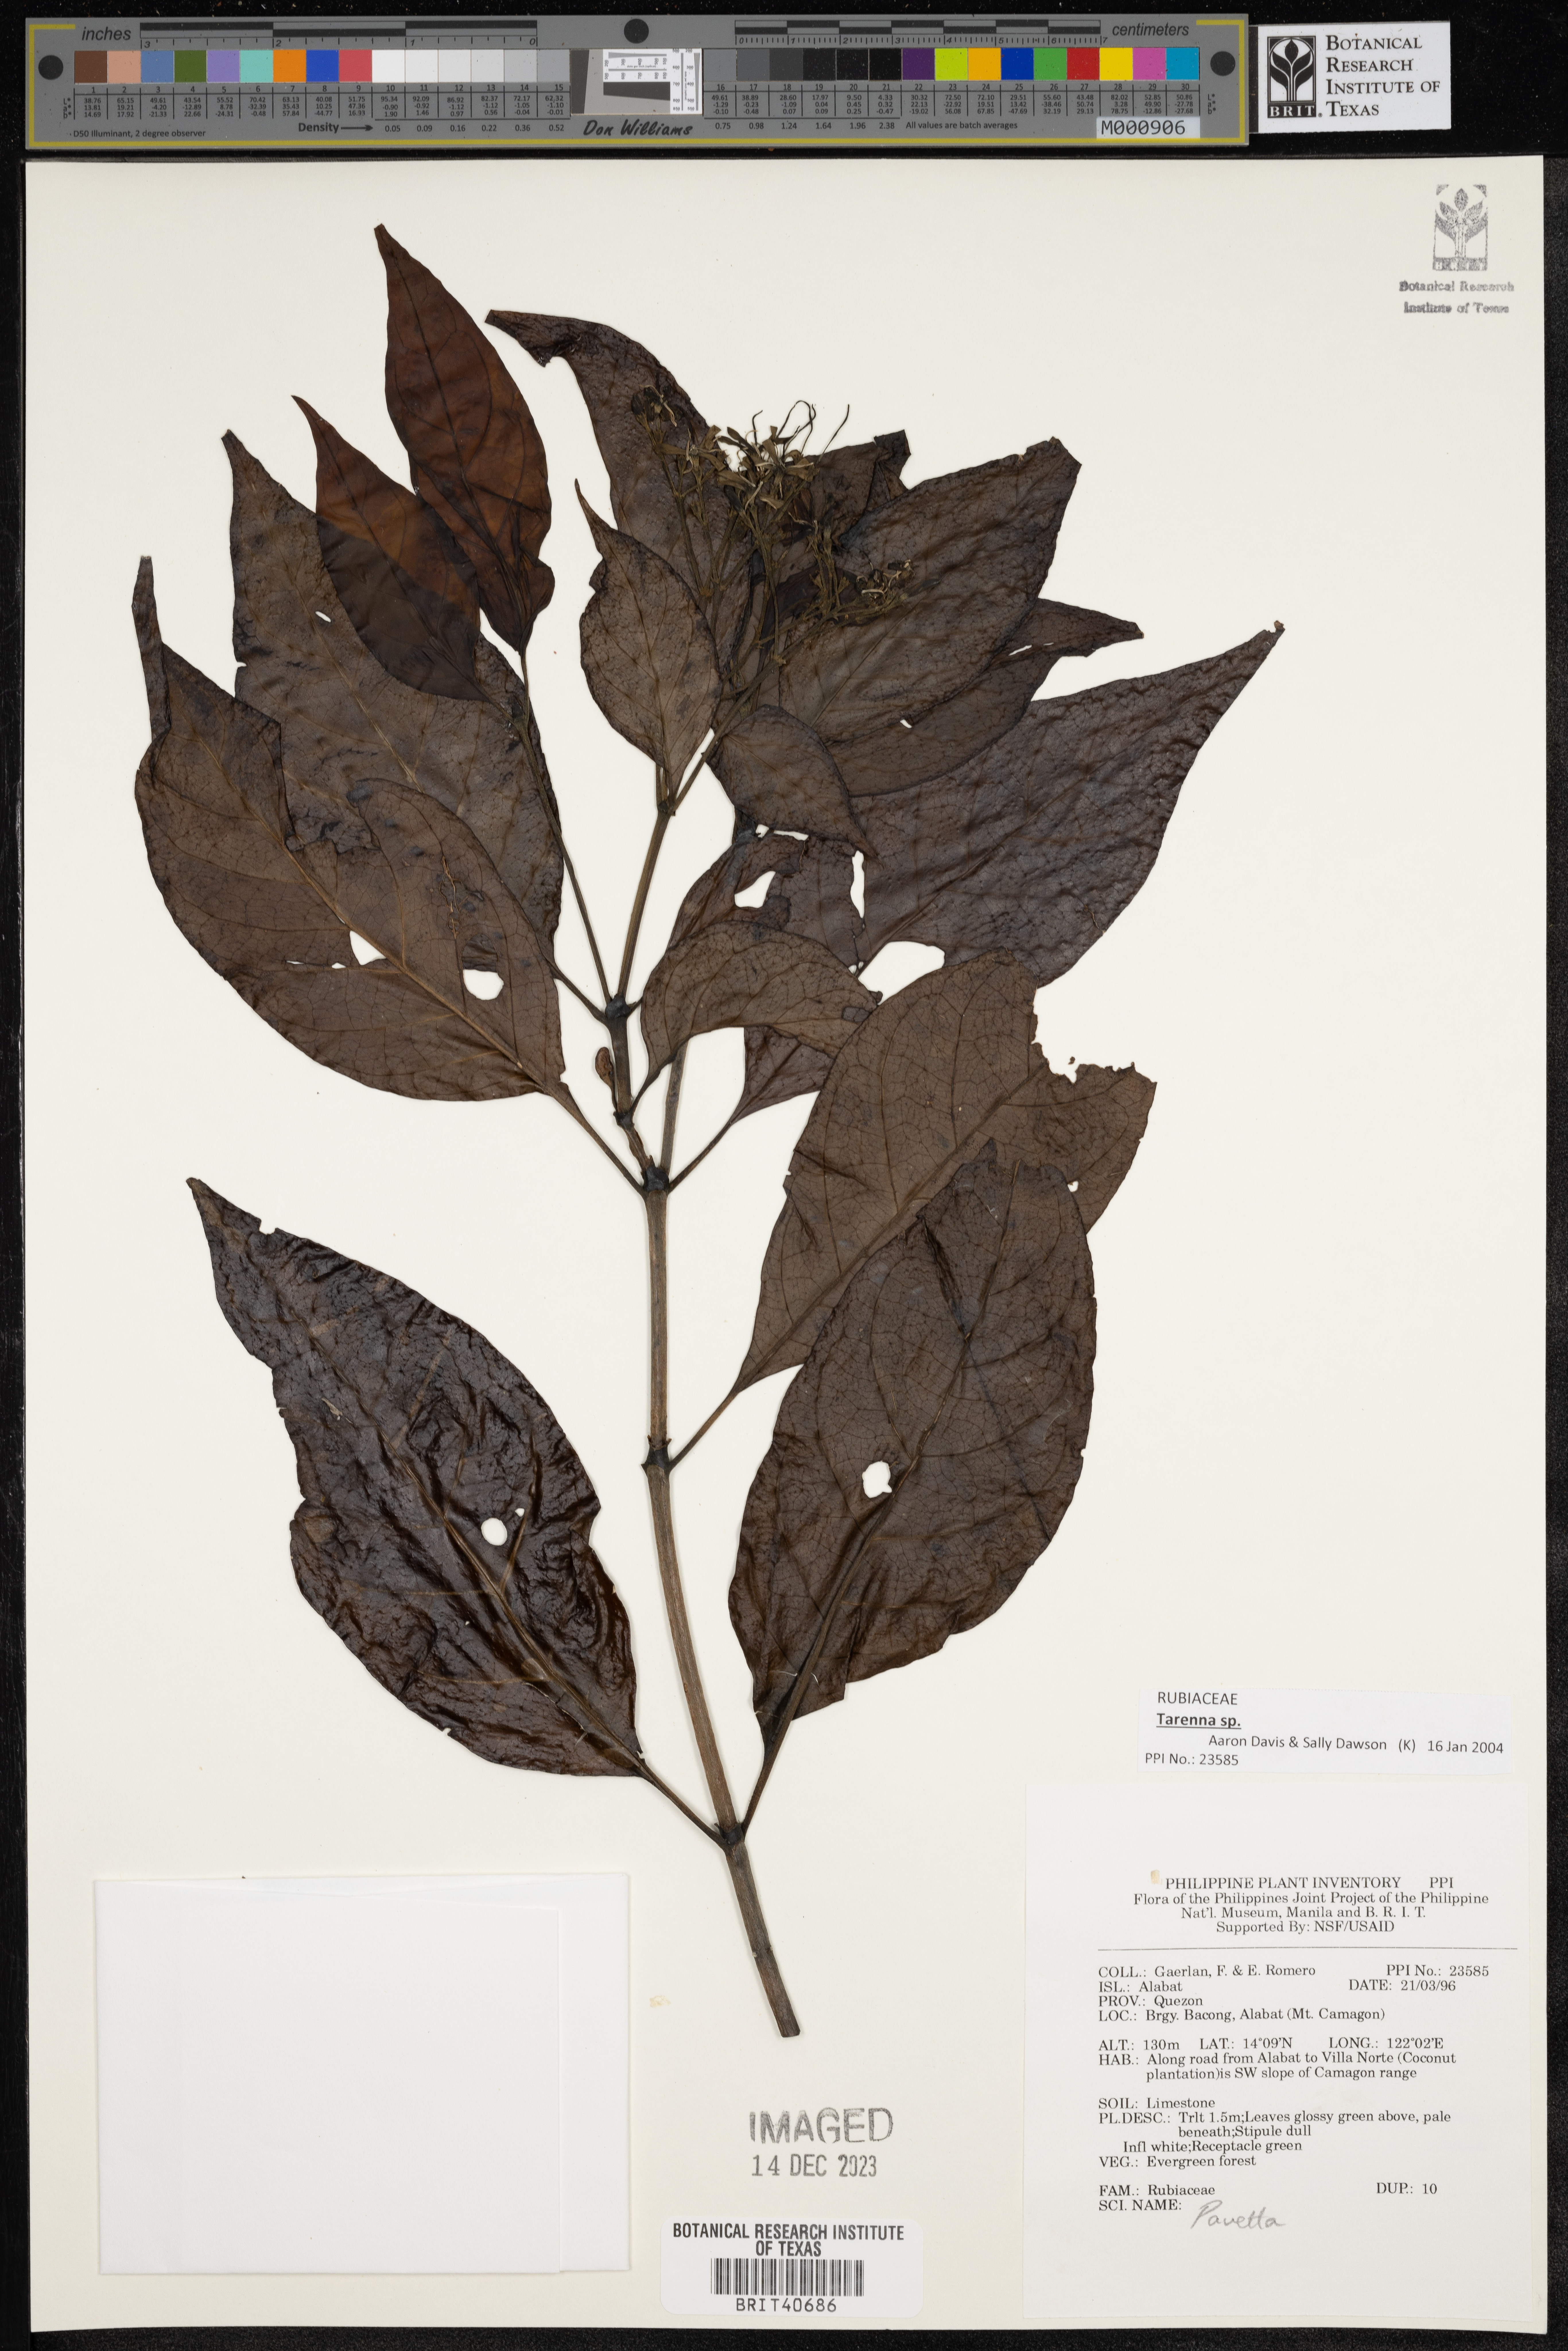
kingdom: Plantae
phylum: Tracheophyta
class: Magnoliopsida
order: Gentianales
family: Rubiaceae
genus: Pavetta
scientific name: Pavetta
